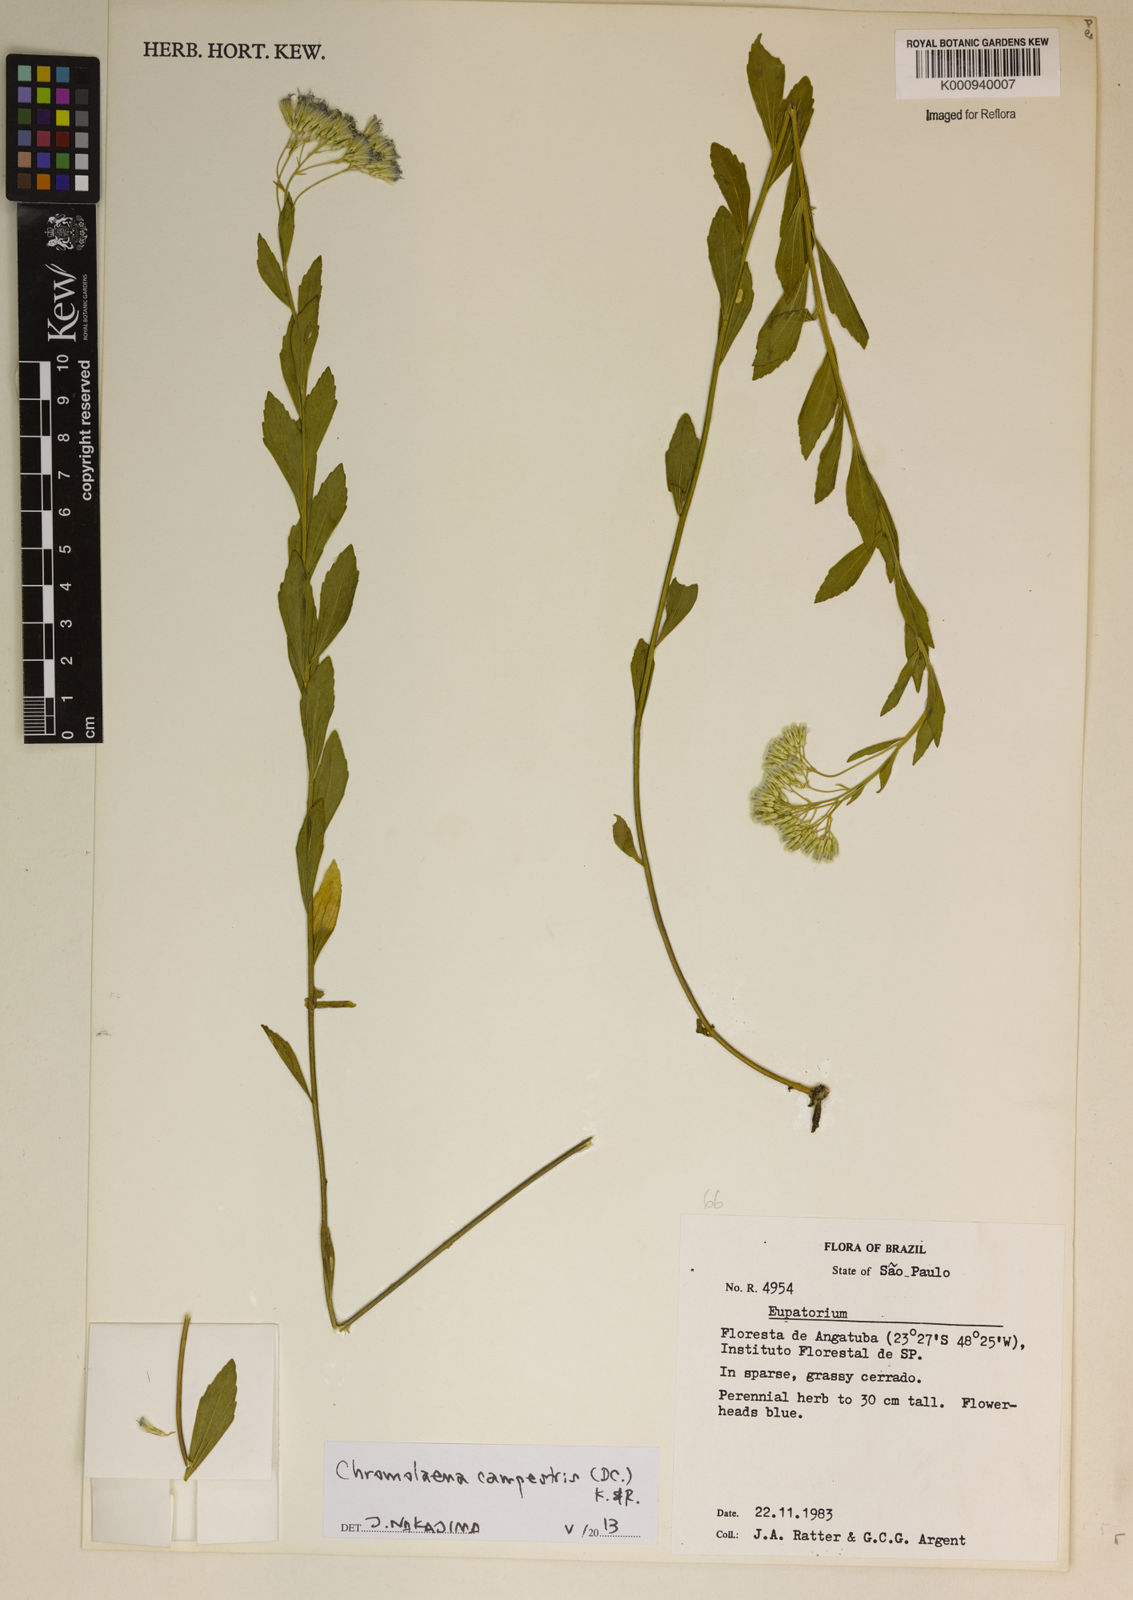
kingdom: Plantae
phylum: Tracheophyta
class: Magnoliopsida
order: Asterales
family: Asteraceae
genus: Chromolaena
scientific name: Chromolaena campestris
